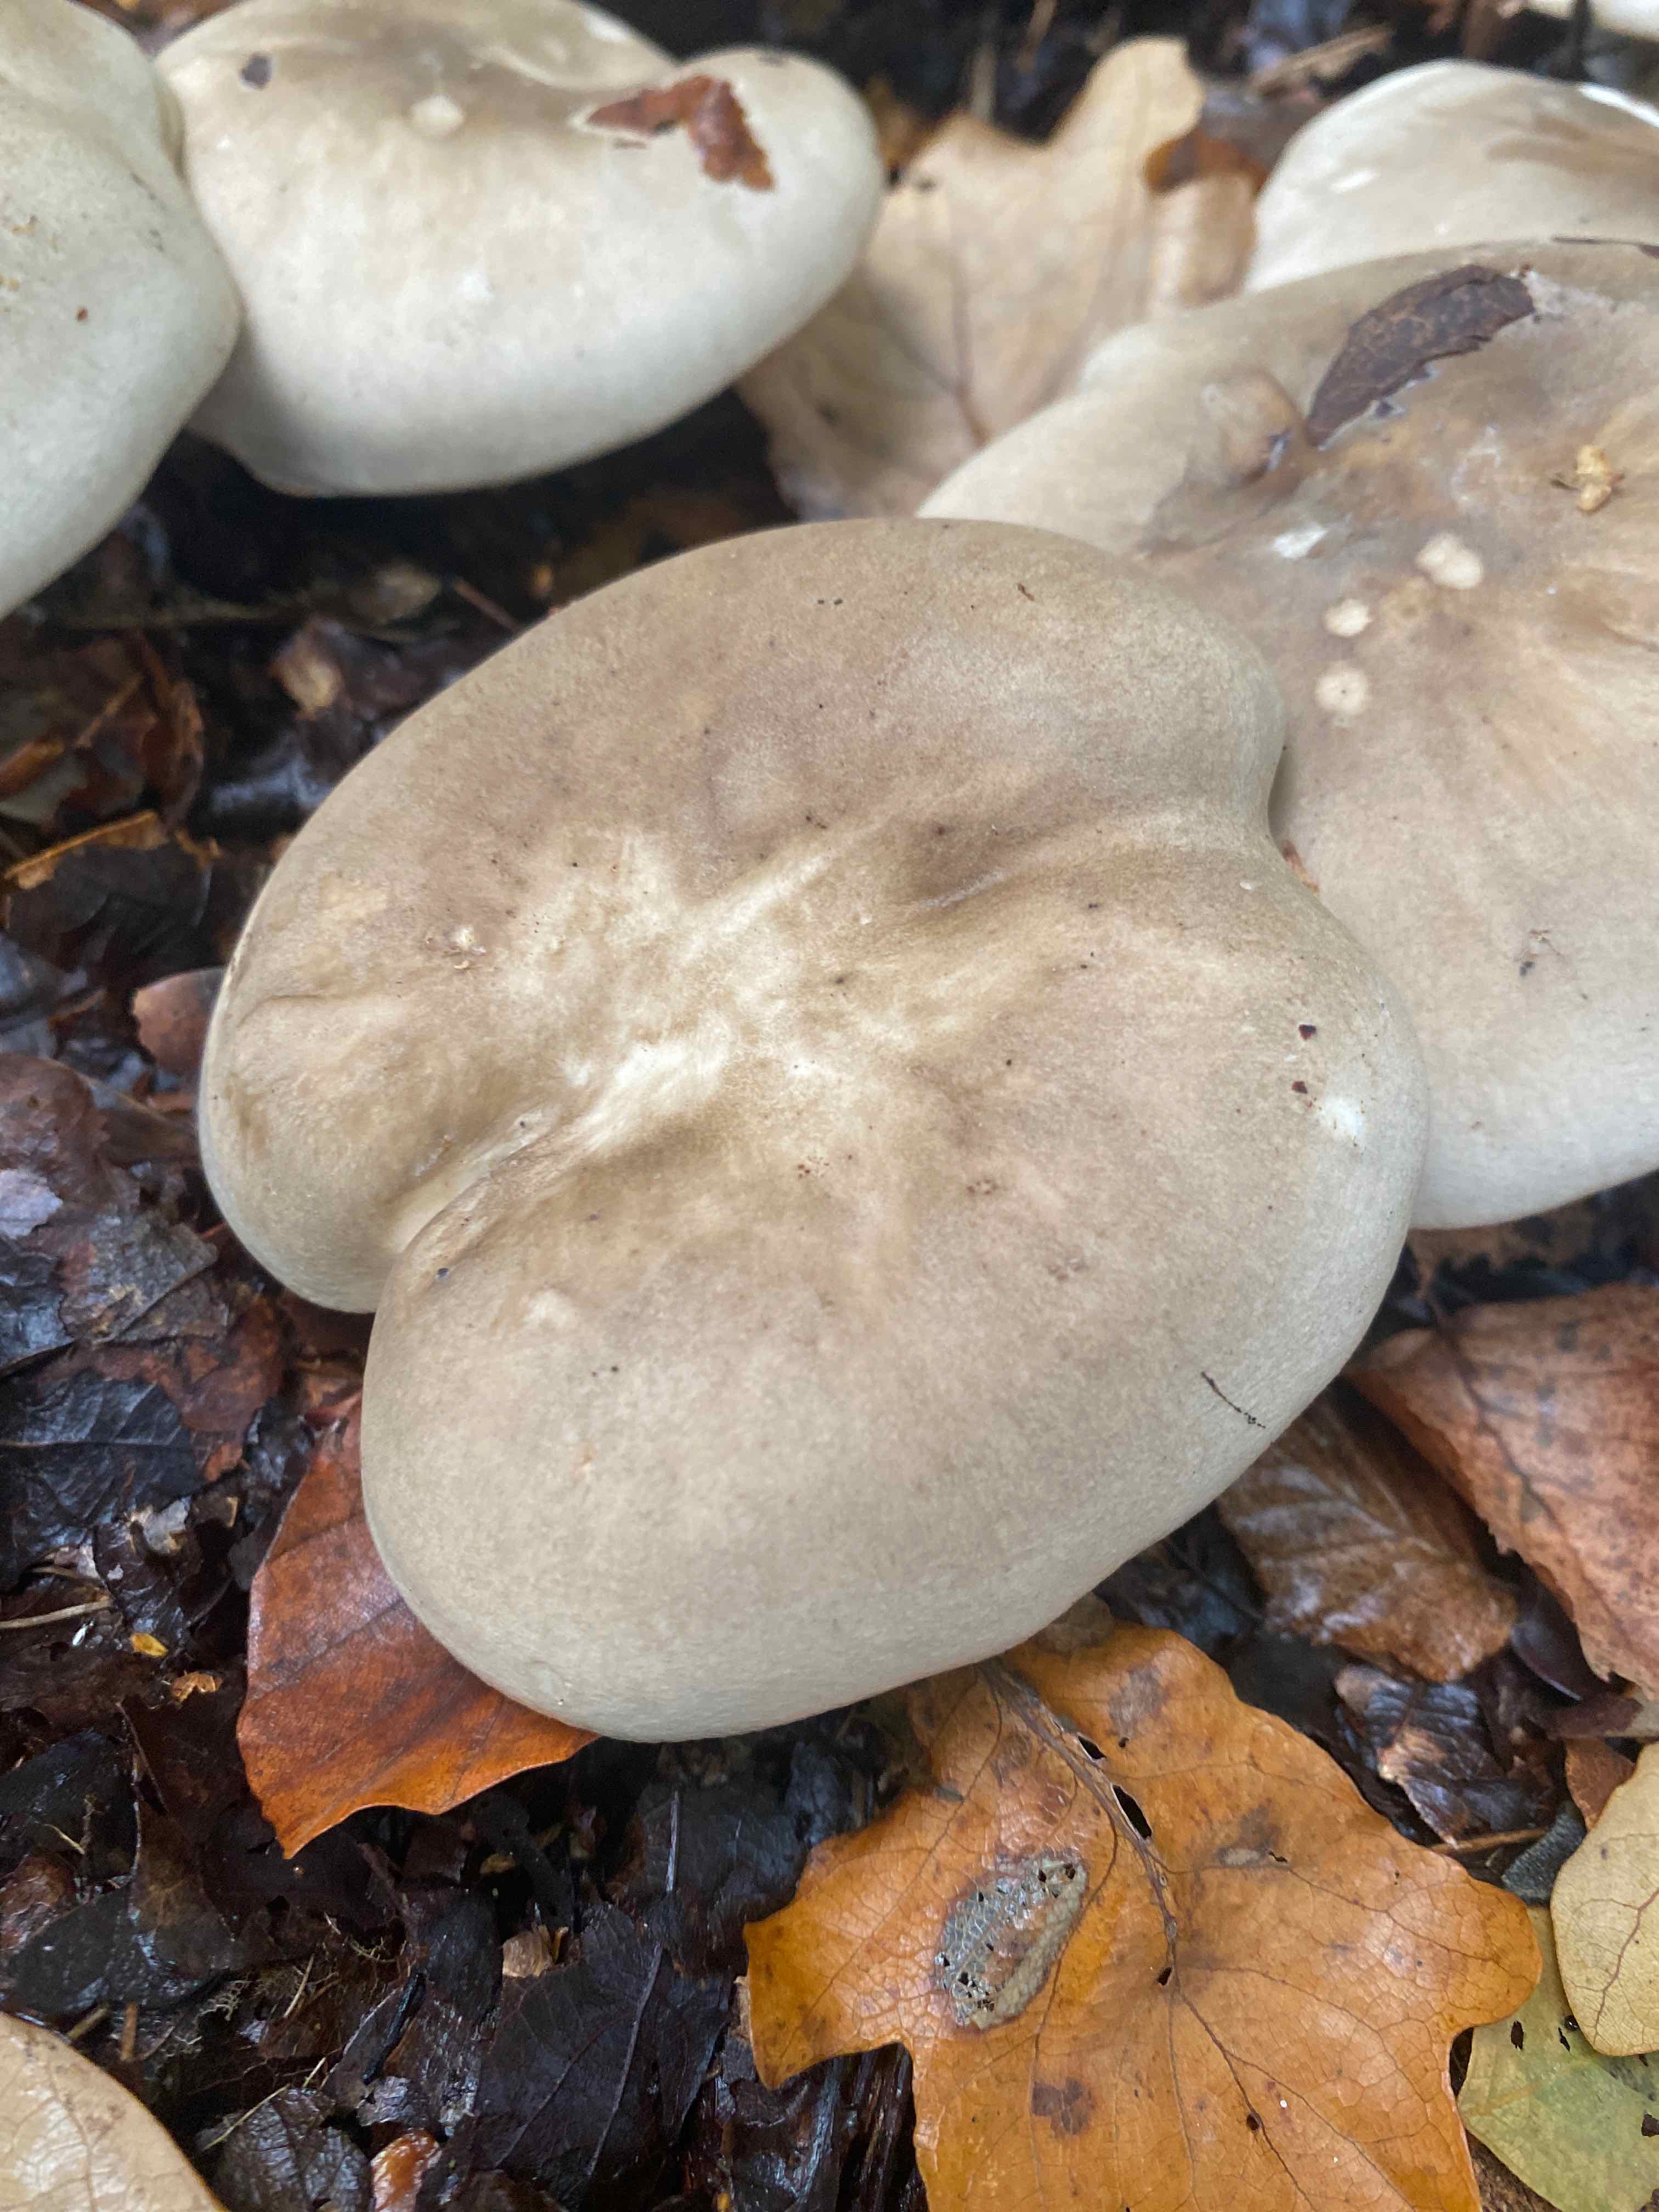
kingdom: Fungi
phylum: Basidiomycota
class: Agaricomycetes
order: Agaricales
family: Tricholomataceae
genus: Clitocybe
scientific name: Clitocybe nebularis
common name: tåge-tragthat
